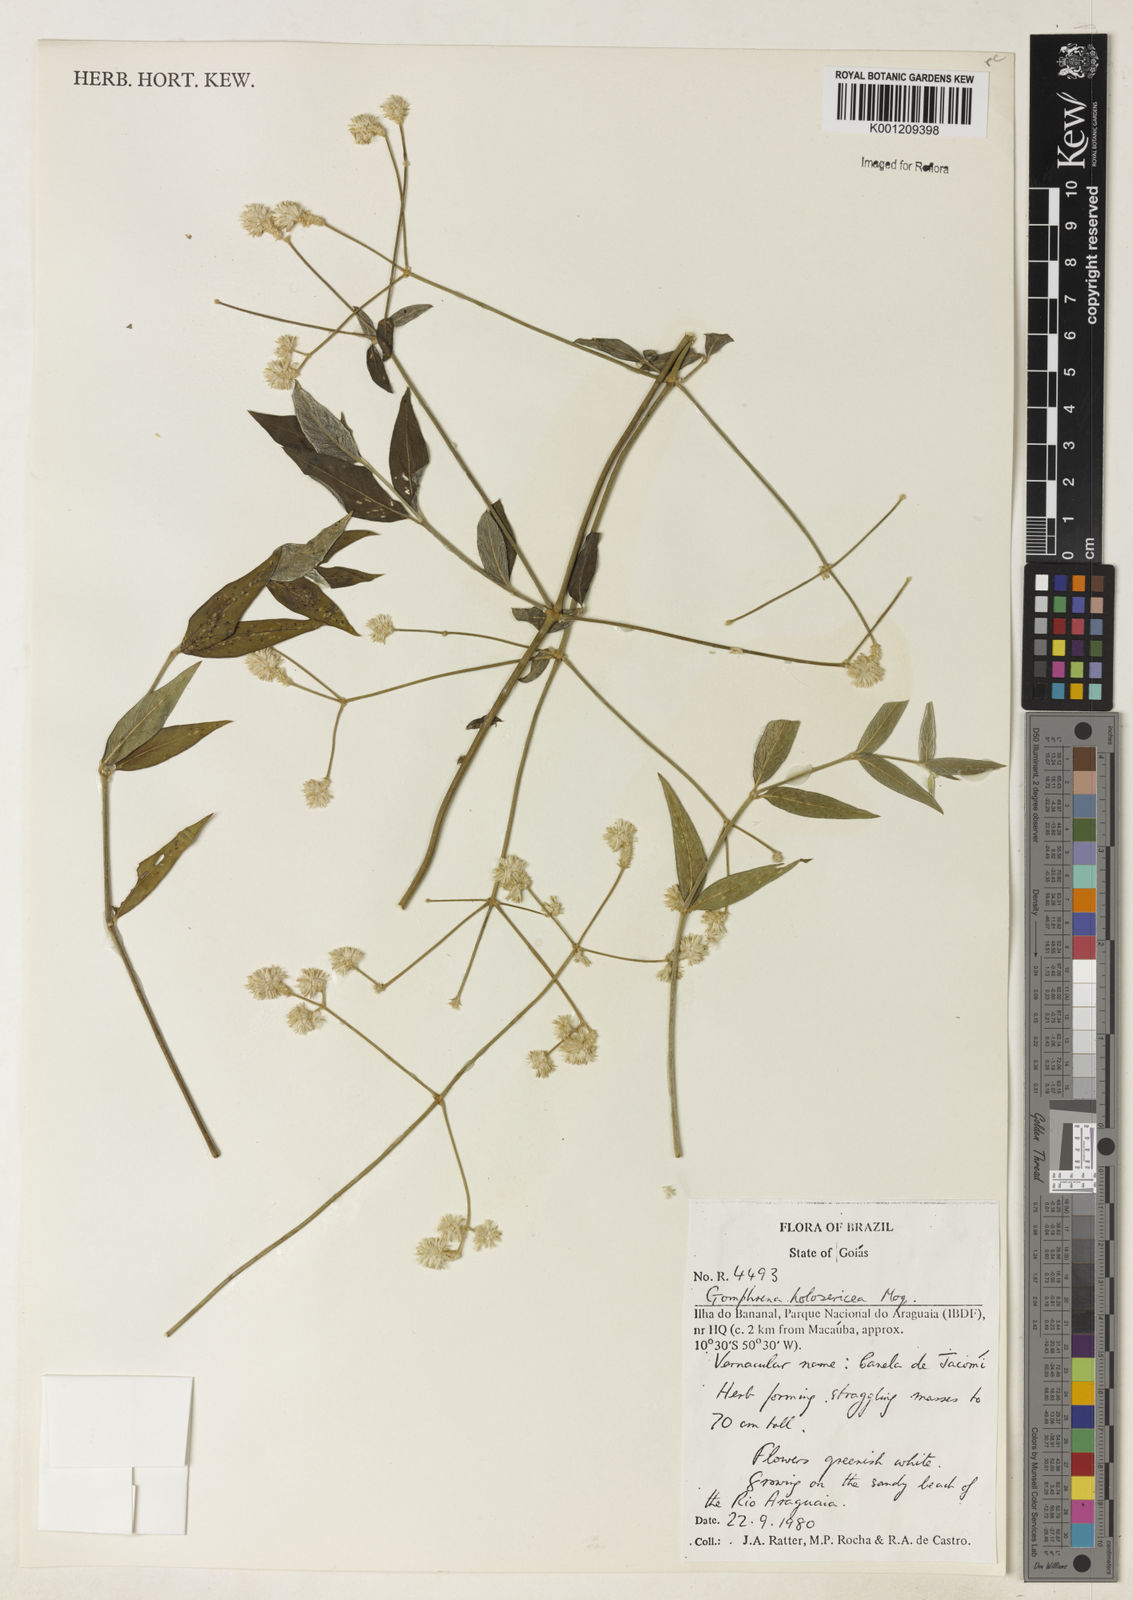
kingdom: Plantae
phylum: Tracheophyta
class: Magnoliopsida
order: Caryophyllales
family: Amaranthaceae
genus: Gomphrena
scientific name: Gomphrena vaga
